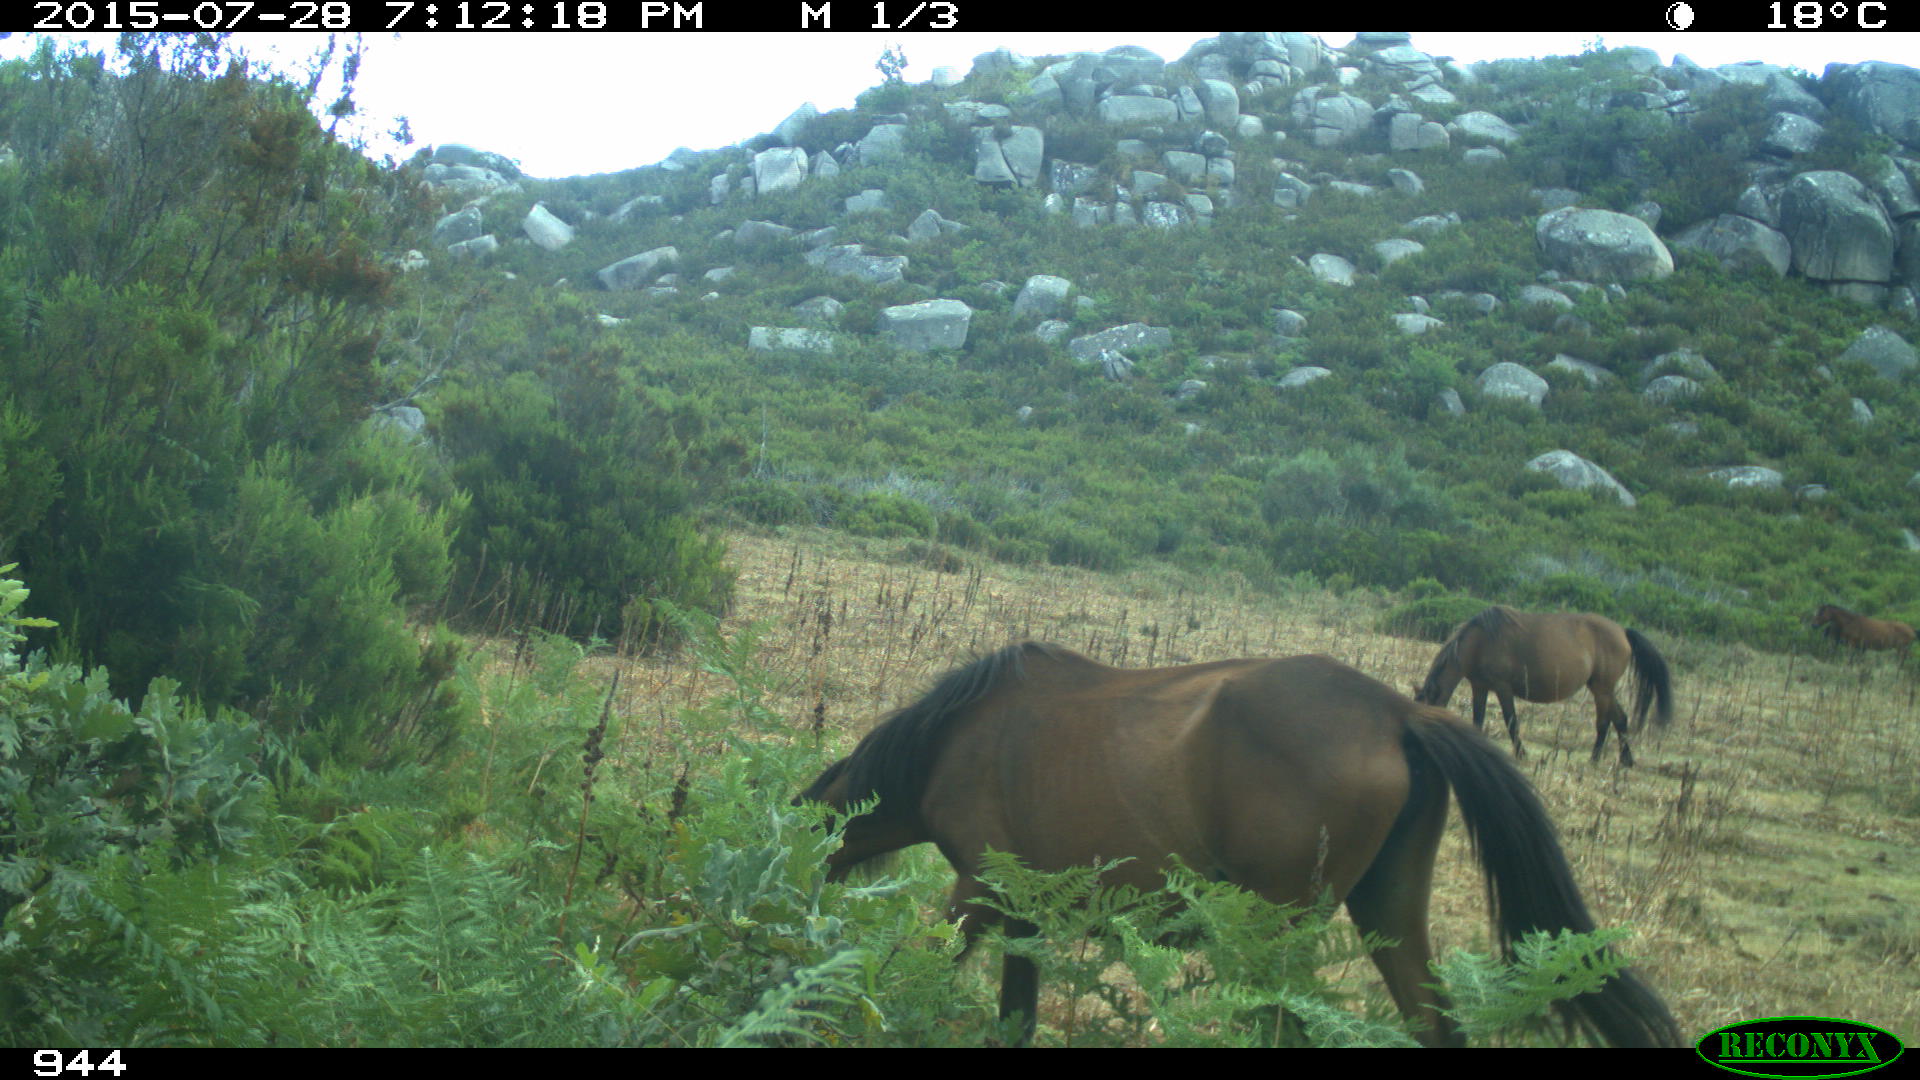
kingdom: Animalia
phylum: Chordata
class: Mammalia
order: Perissodactyla
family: Equidae
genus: Equus
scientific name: Equus caballus
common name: Horse
